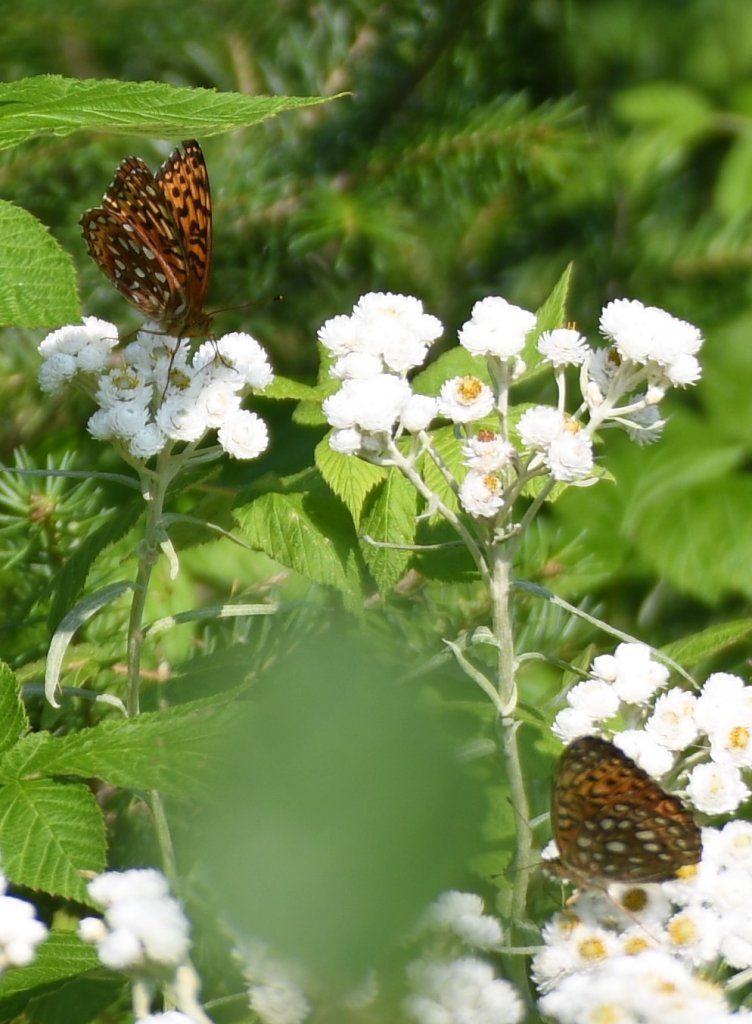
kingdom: Animalia
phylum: Arthropoda
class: Insecta
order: Lepidoptera
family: Nymphalidae
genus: Speyeria
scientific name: Speyeria atlantis
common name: Atlantis Fritillary
